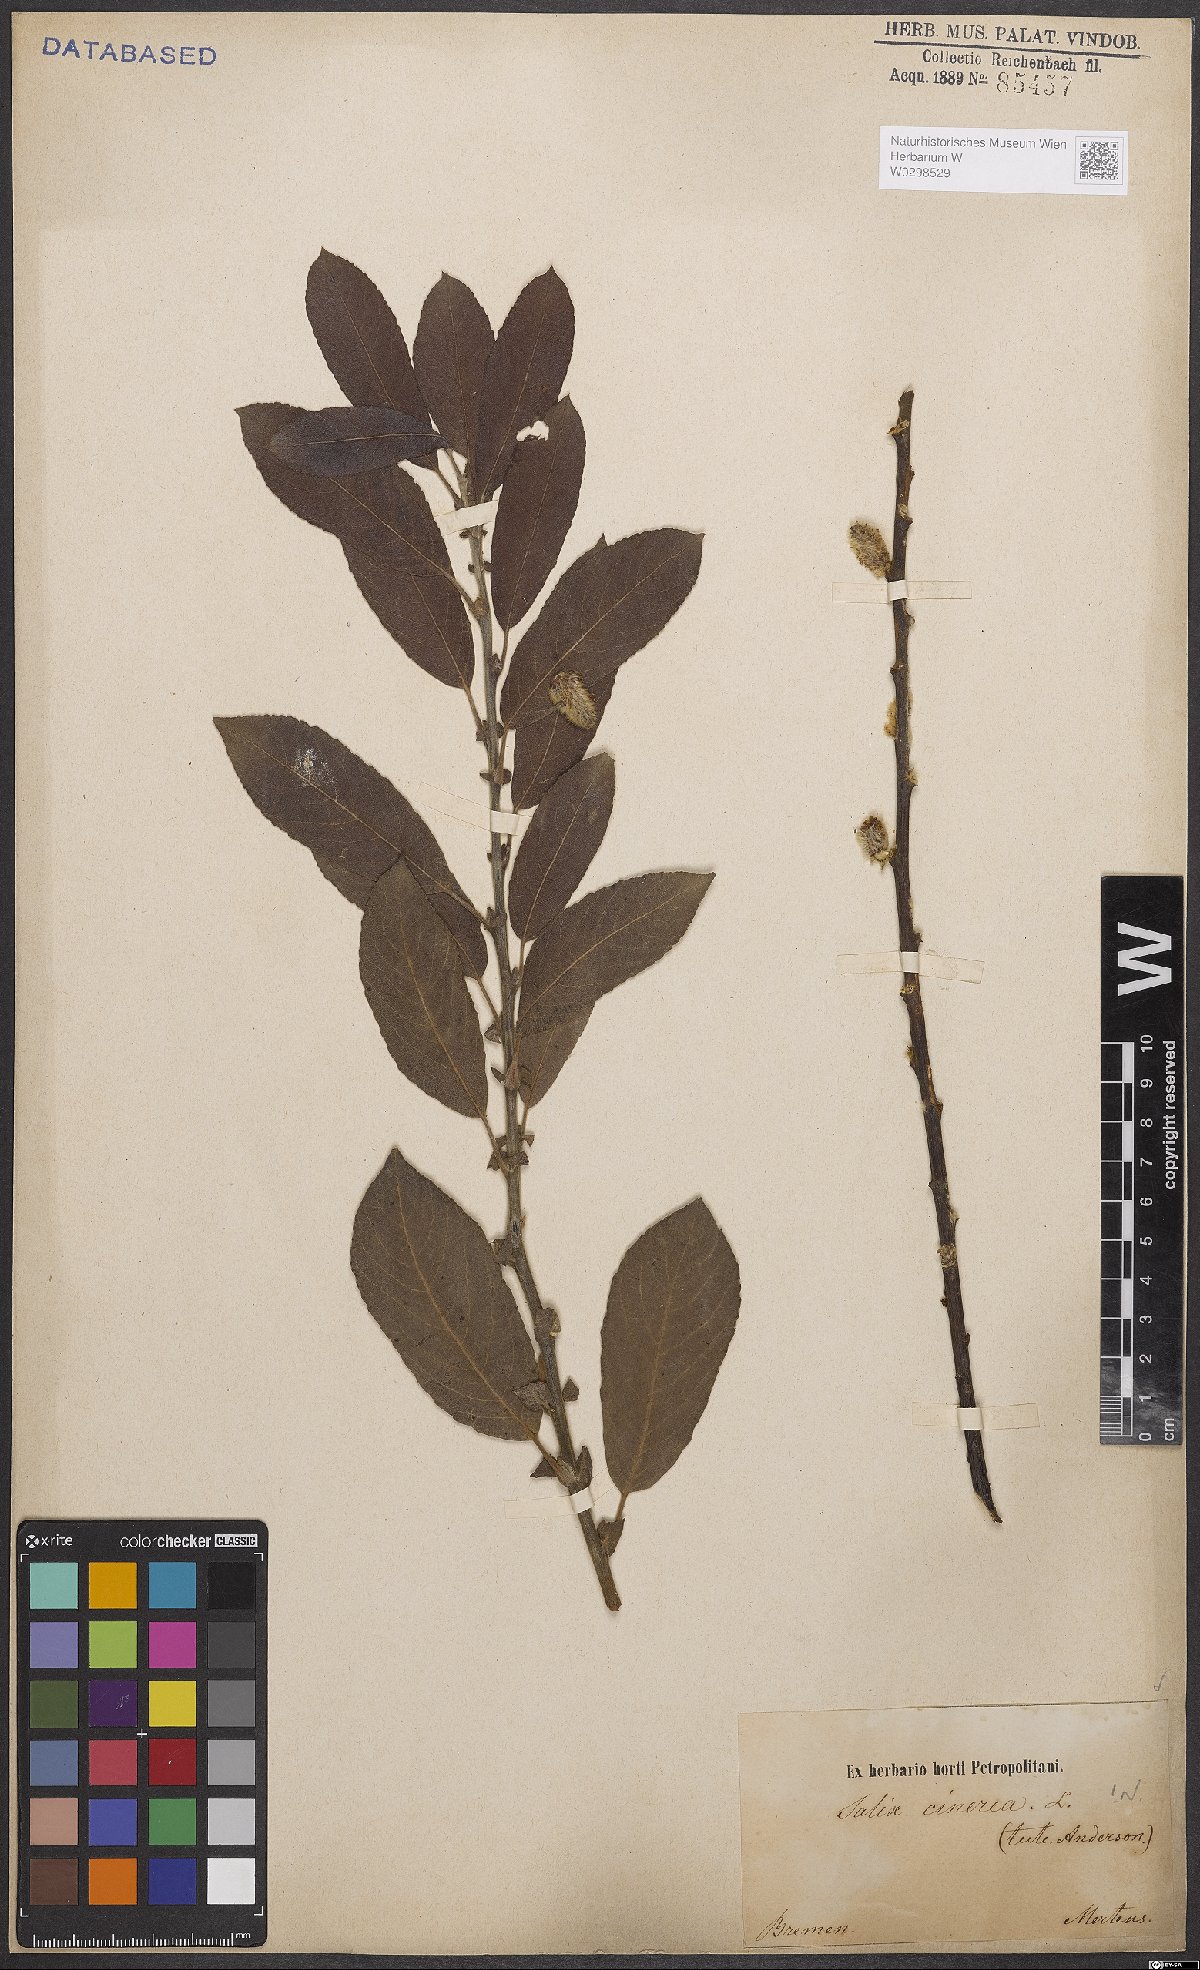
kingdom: Plantae
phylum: Tracheophyta
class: Magnoliopsida
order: Malpighiales
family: Salicaceae
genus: Salix
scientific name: Salix cinerea
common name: Common sallow
